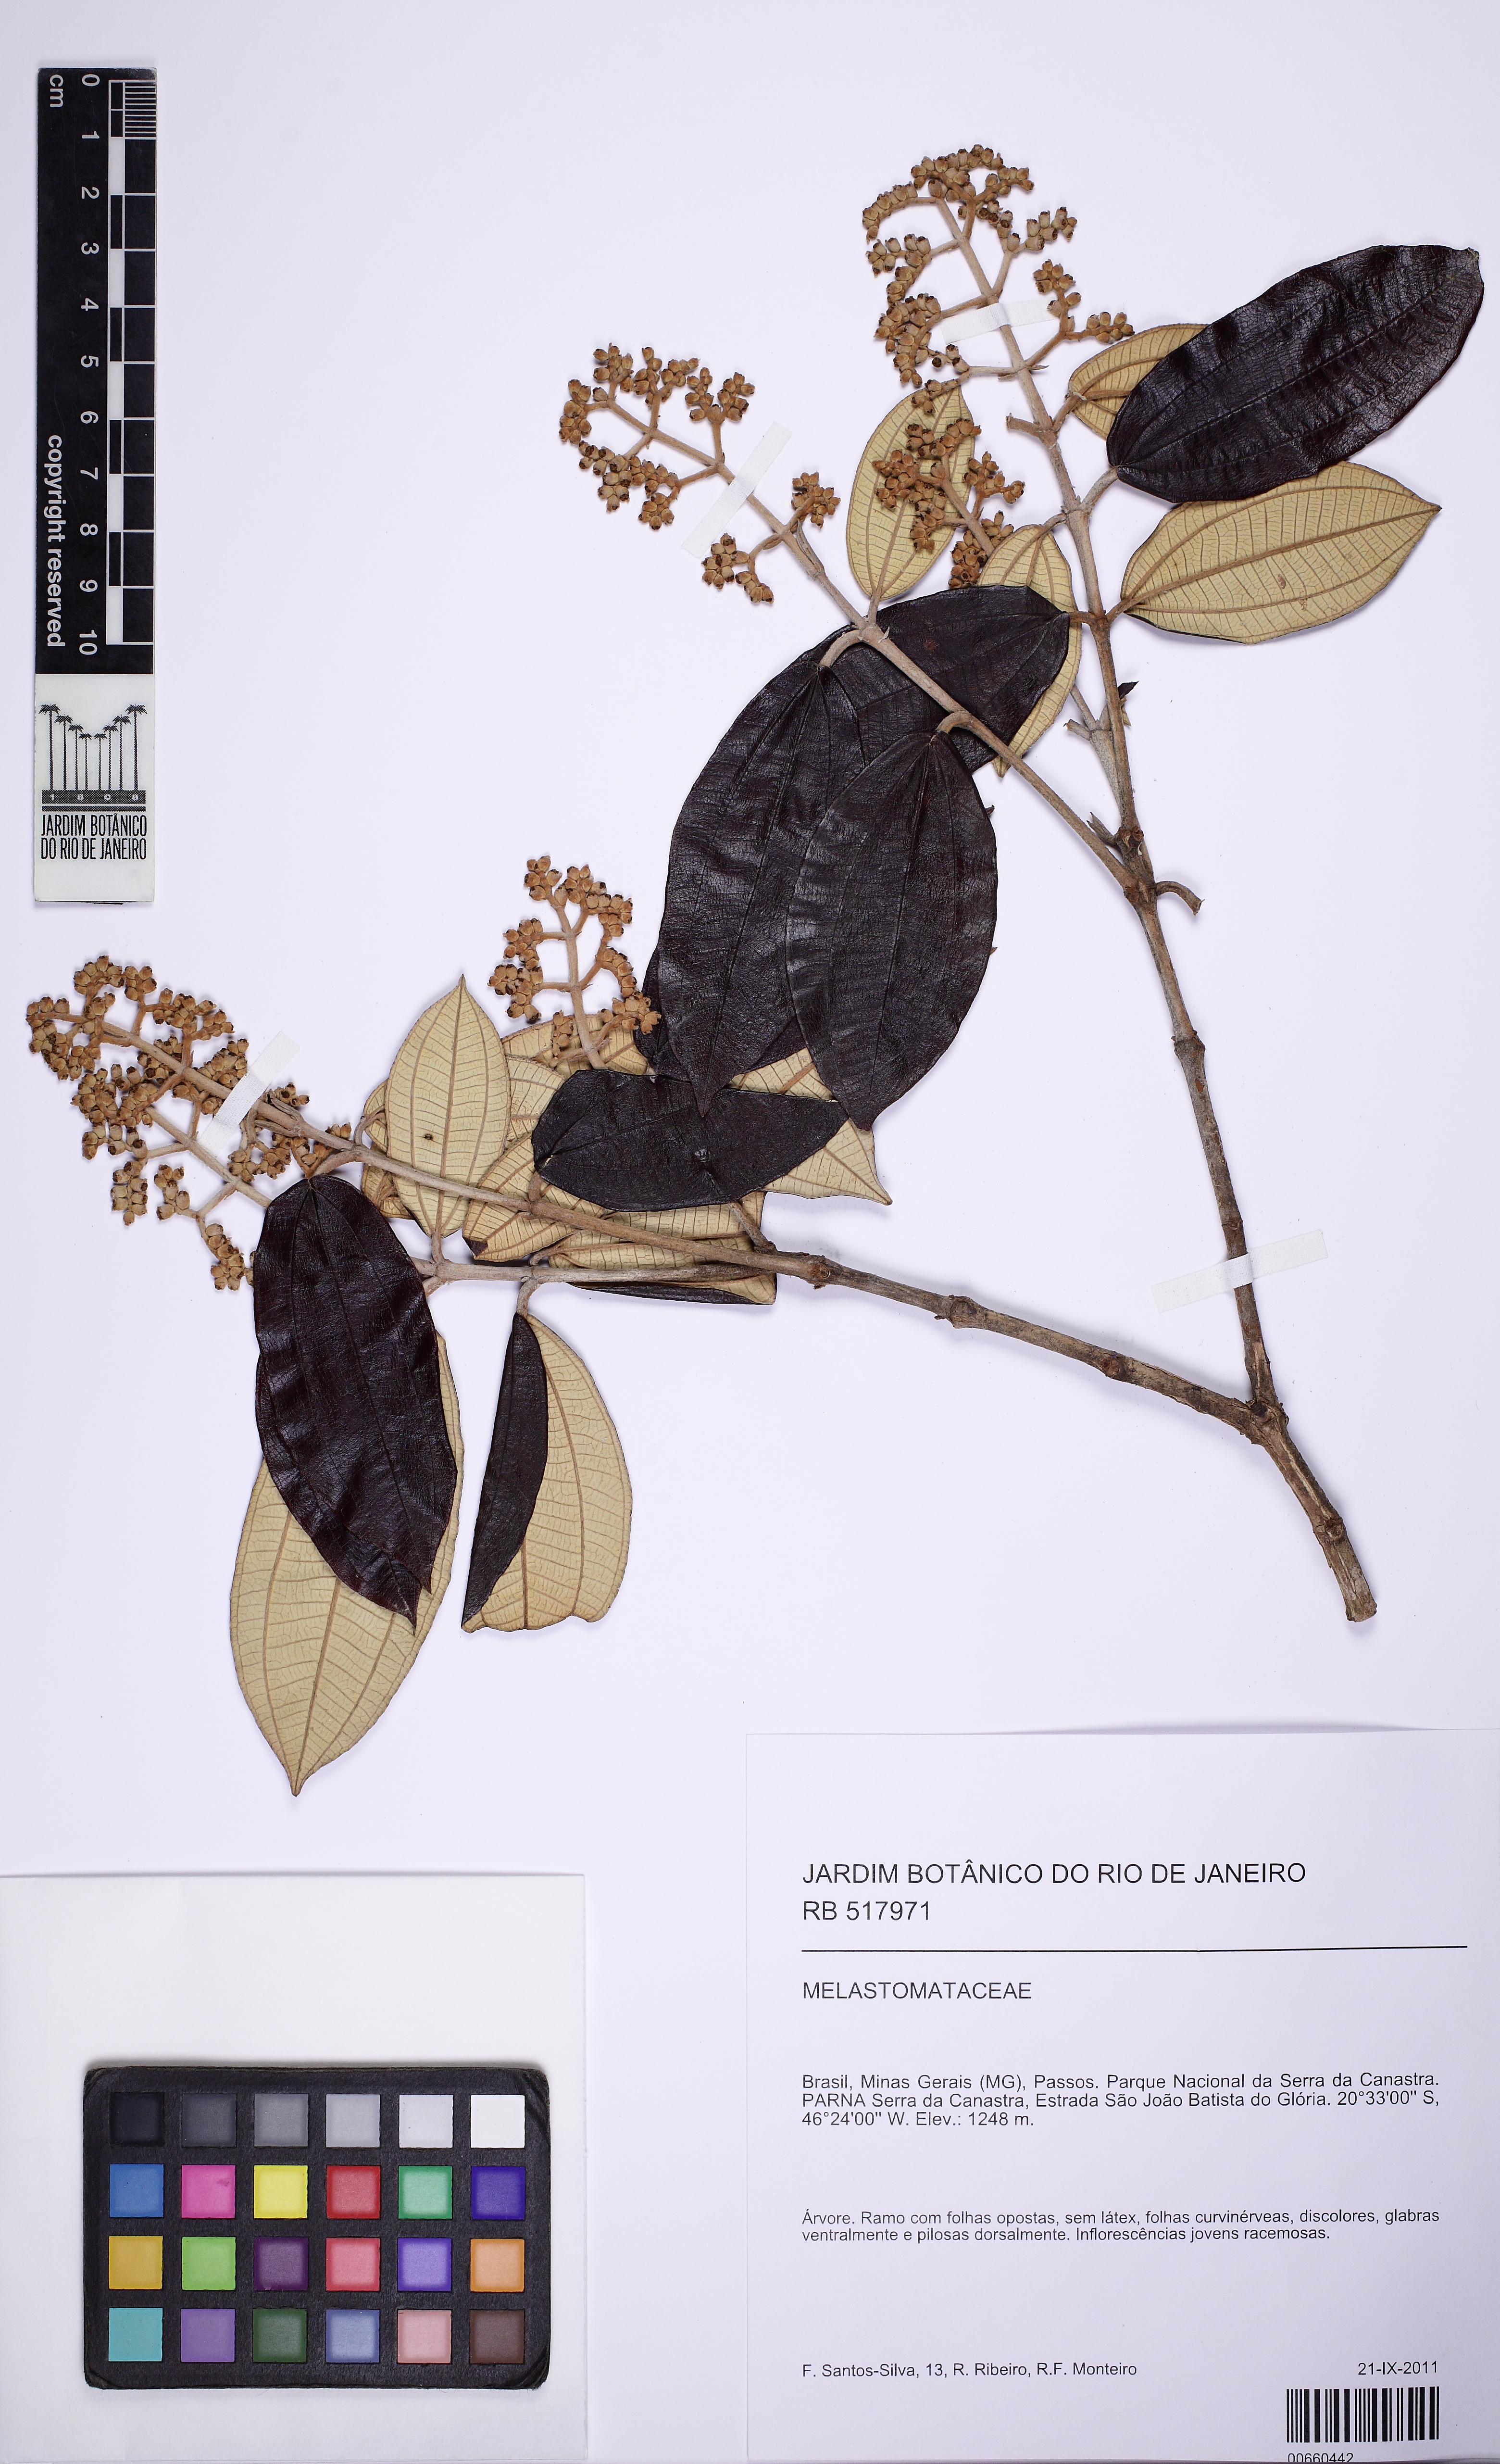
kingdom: Plantae
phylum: Tracheophyta
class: Magnoliopsida
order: Myrtales
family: Melastomataceae
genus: Miconia
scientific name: Miconia albicans
